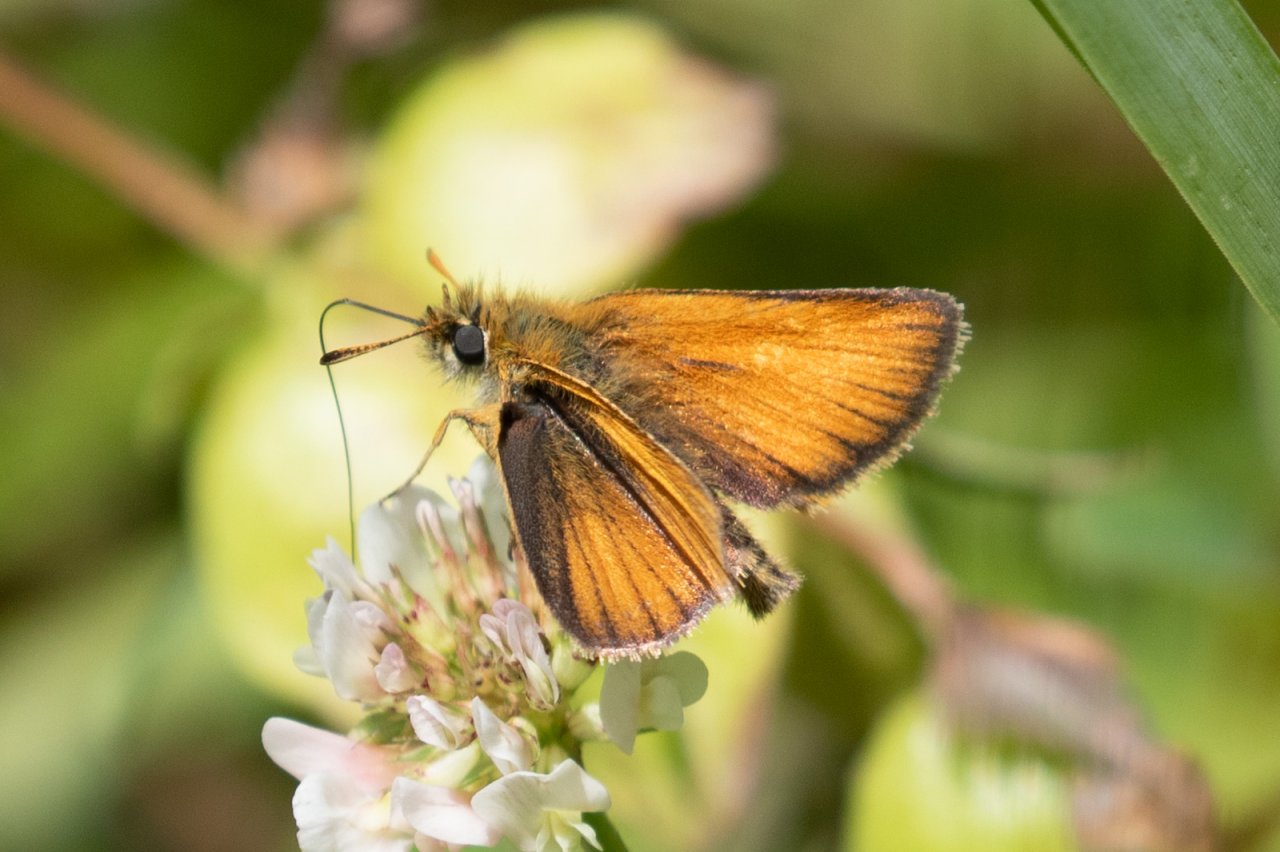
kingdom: Animalia
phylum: Arthropoda
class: Insecta
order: Lepidoptera
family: Hesperiidae
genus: Thymelicus
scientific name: Thymelicus lineola
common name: European Skipper
